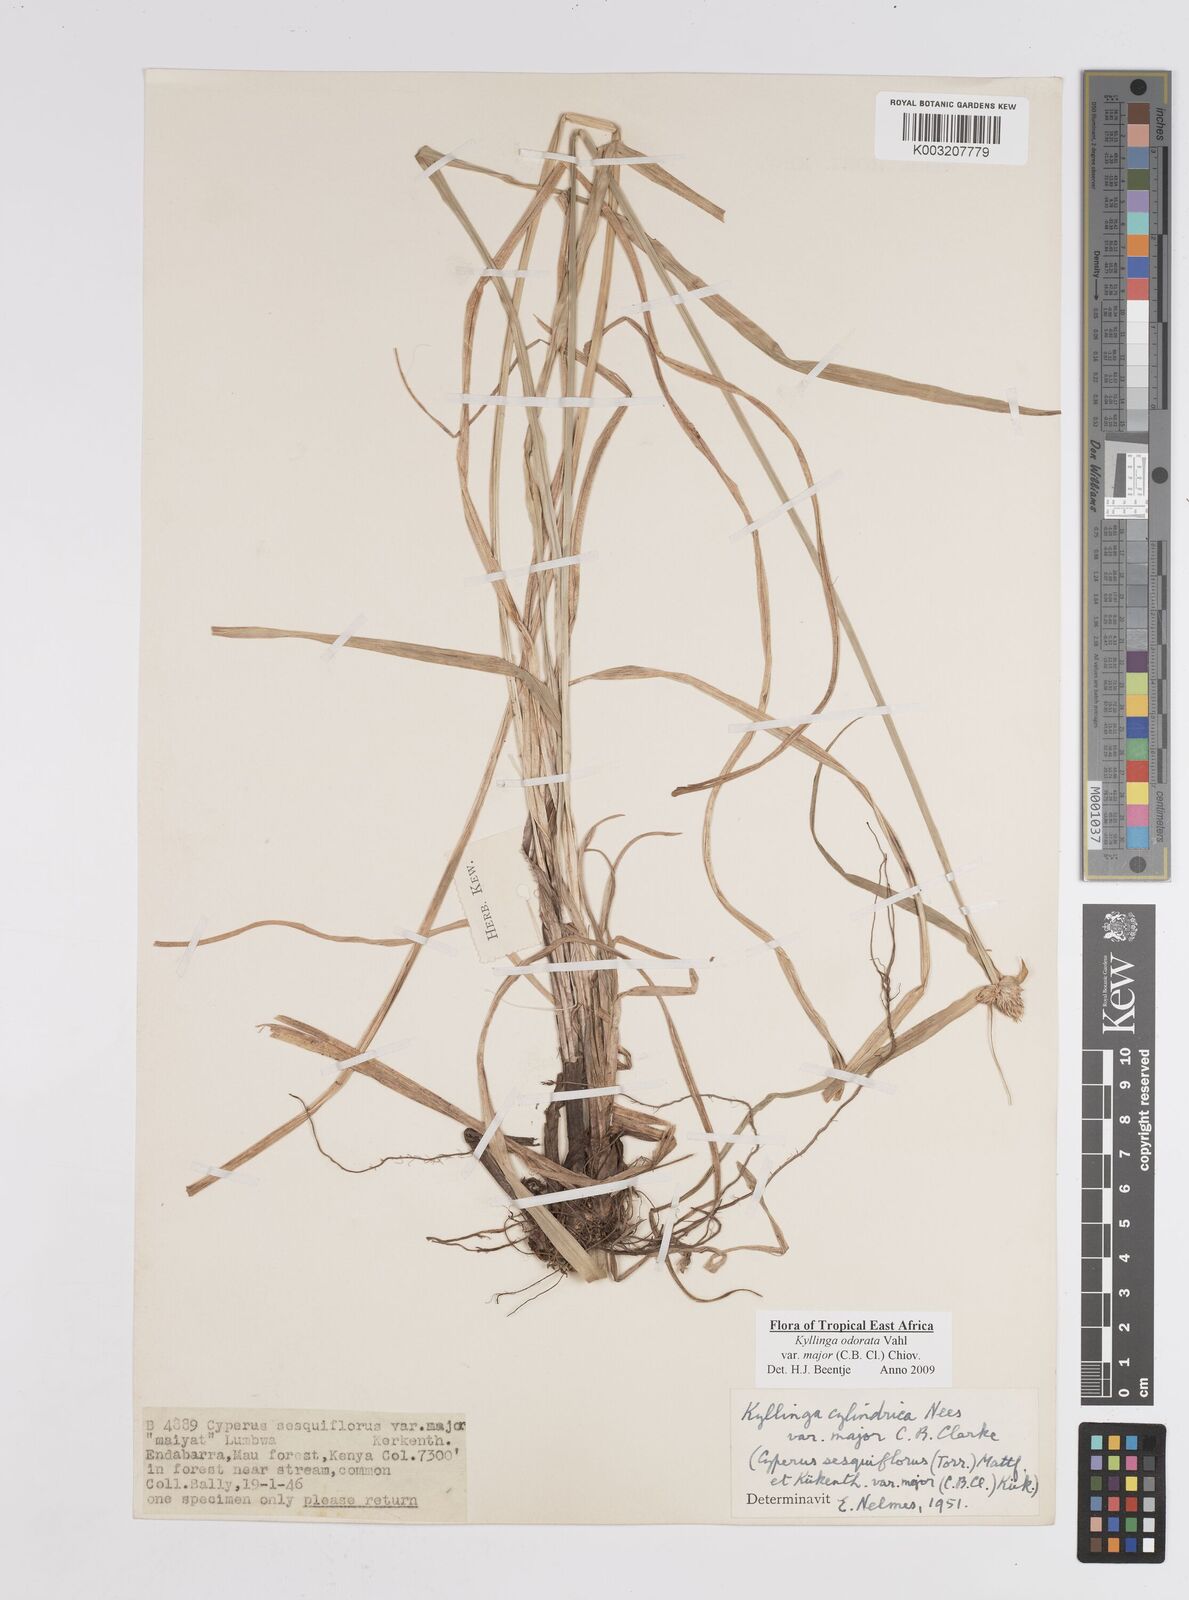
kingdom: Plantae
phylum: Tracheophyta
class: Liliopsida
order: Poales
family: Cyperaceae
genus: Cyperus
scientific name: Cyperus
